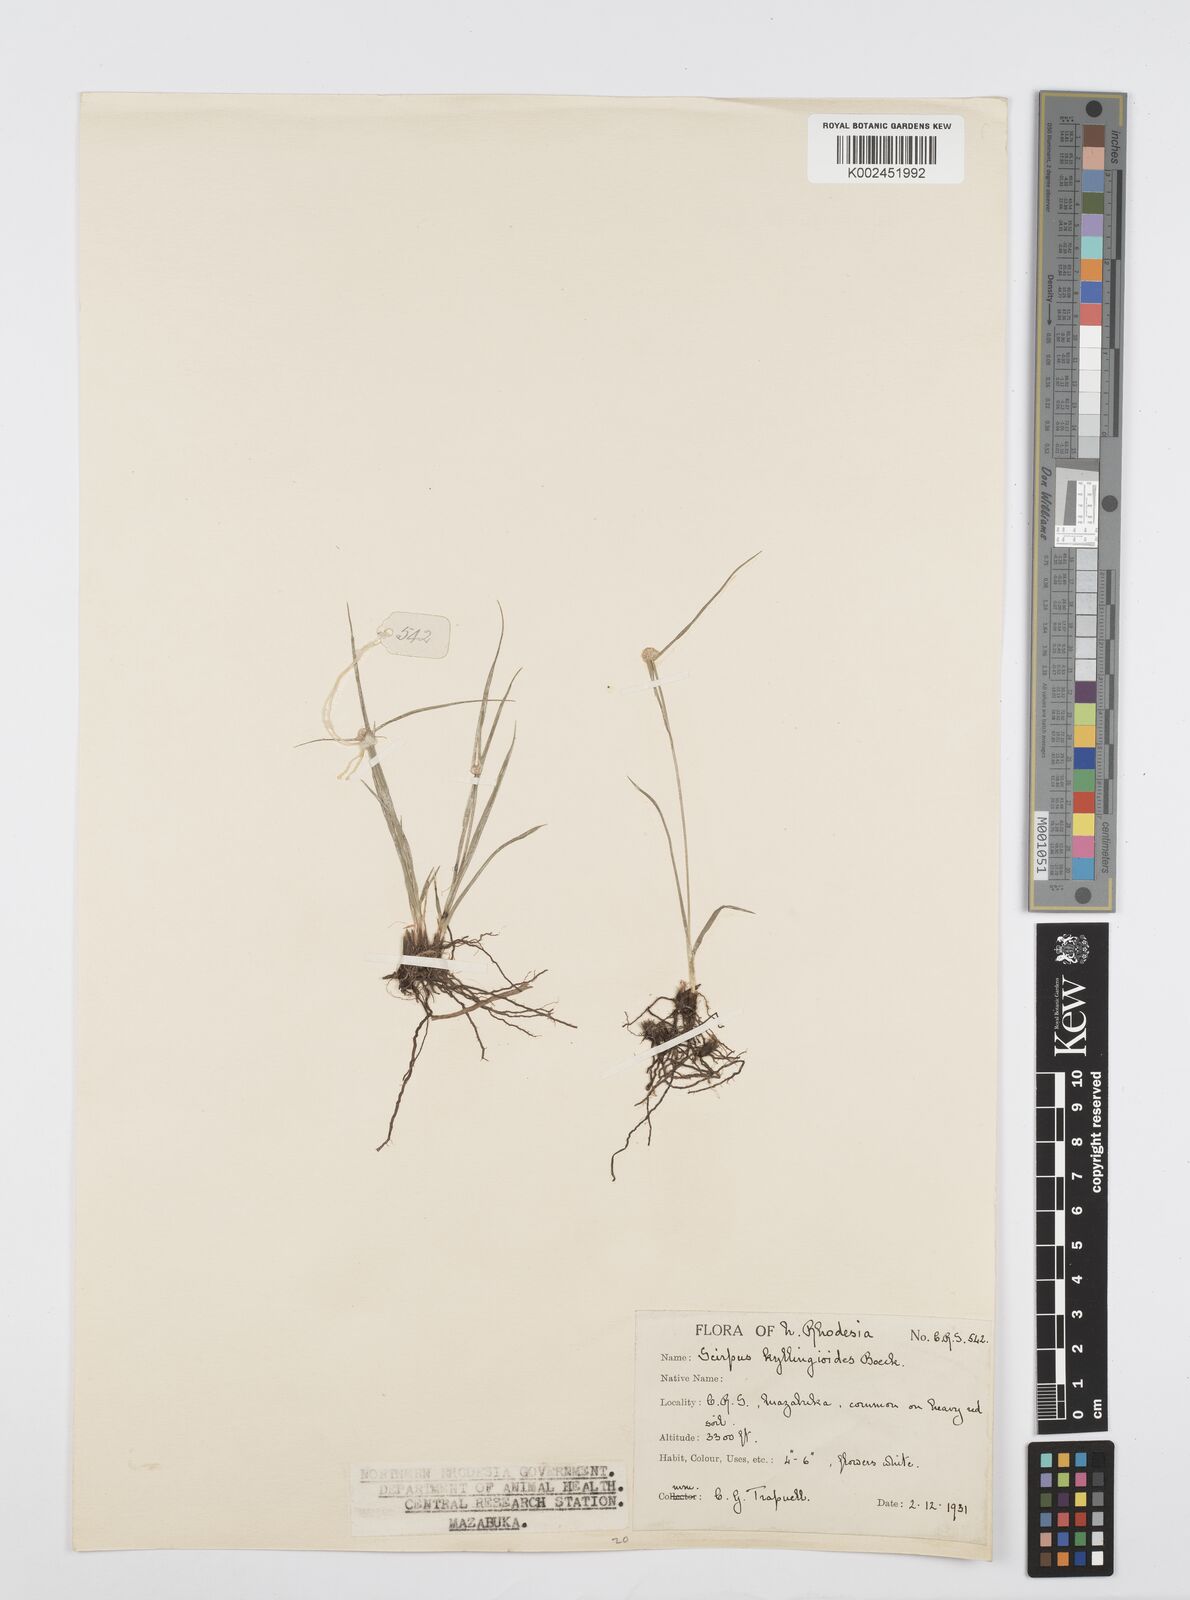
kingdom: Plantae
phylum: Tracheophyta
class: Liliopsida
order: Poales
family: Cyperaceae
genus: Cyperus
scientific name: Cyperus microcephalus
